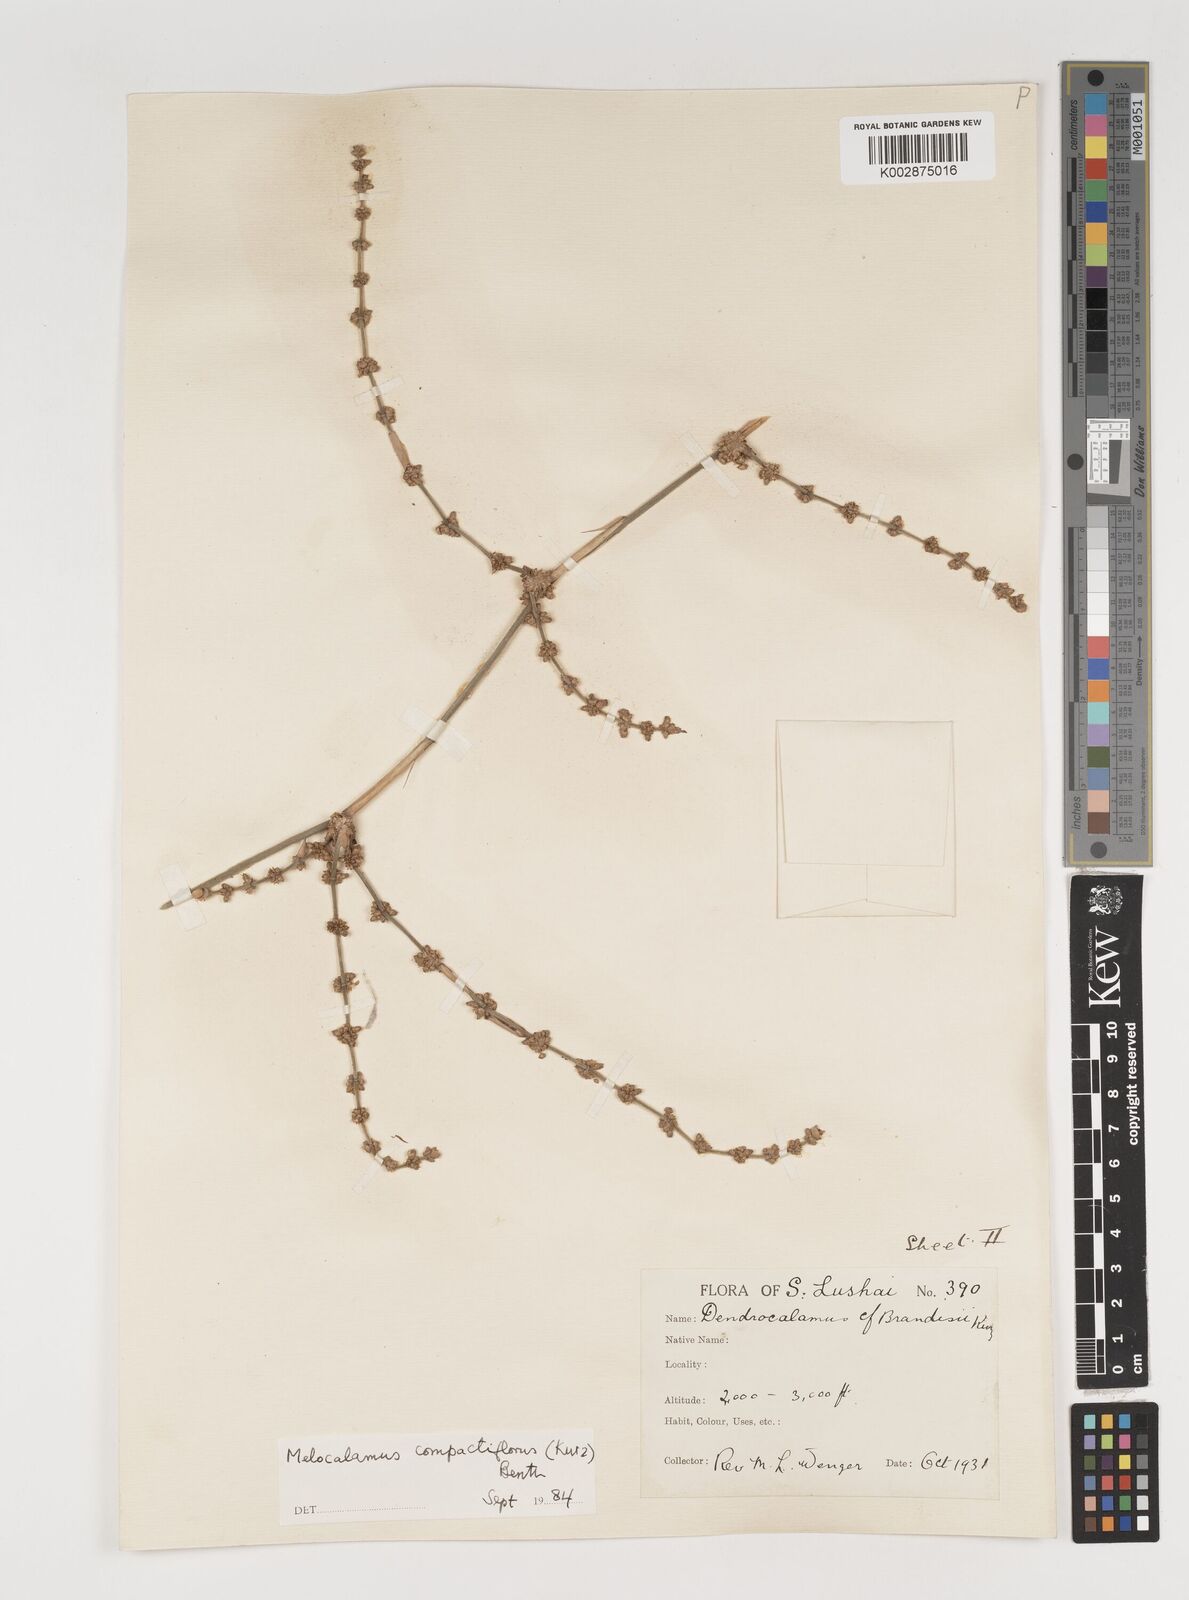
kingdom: Plantae
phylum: Tracheophyta
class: Liliopsida
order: Poales
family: Poaceae
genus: Melocalamus
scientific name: Melocalamus
